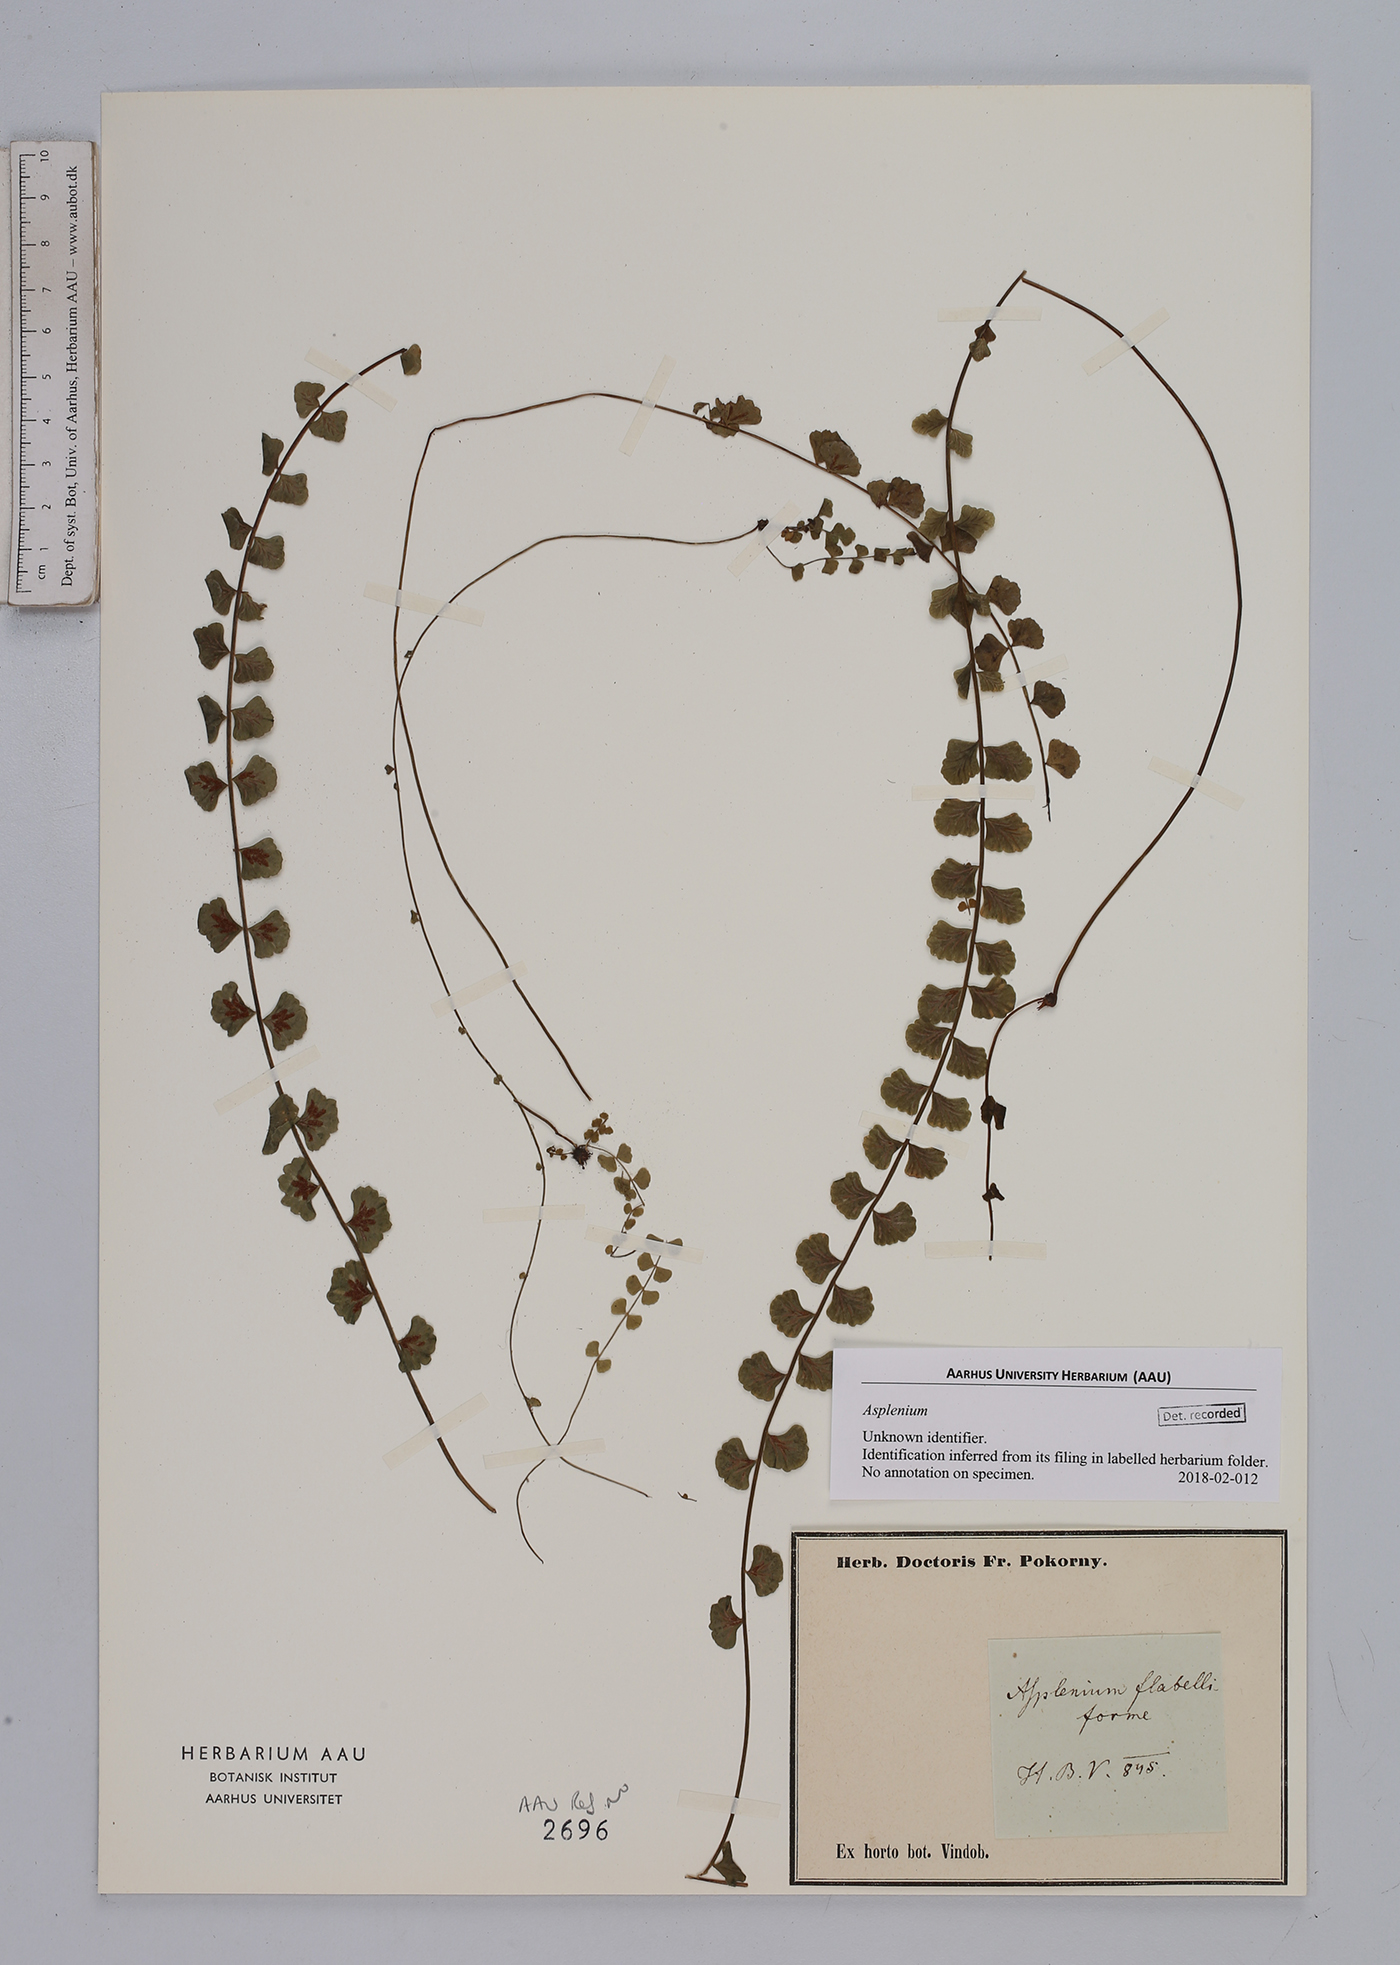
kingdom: Plantae
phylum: Tracheophyta
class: Polypodiopsida
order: Polypodiales
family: Aspleniaceae
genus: Asplenium
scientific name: Asplenium
